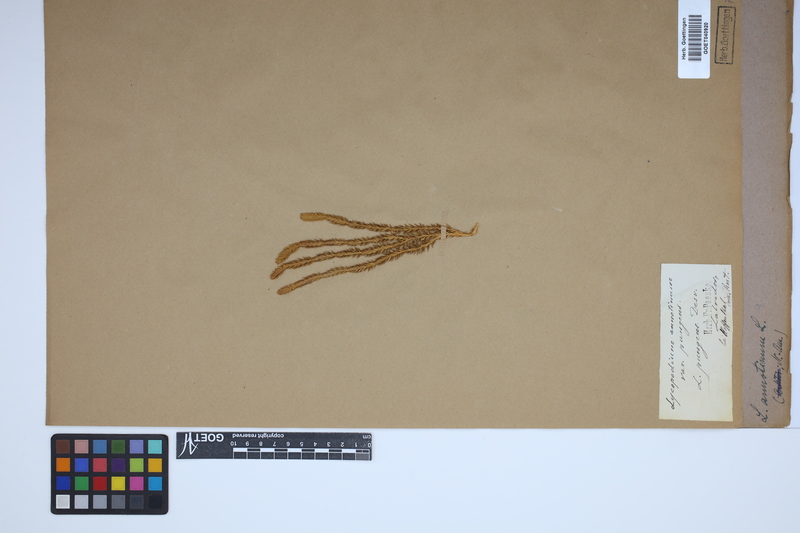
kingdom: Plantae
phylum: Tracheophyta
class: Lycopodiopsida
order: Lycopodiales
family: Lycopodiaceae
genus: Spinulum
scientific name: Spinulum annotinum
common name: Interrupted club-moss
